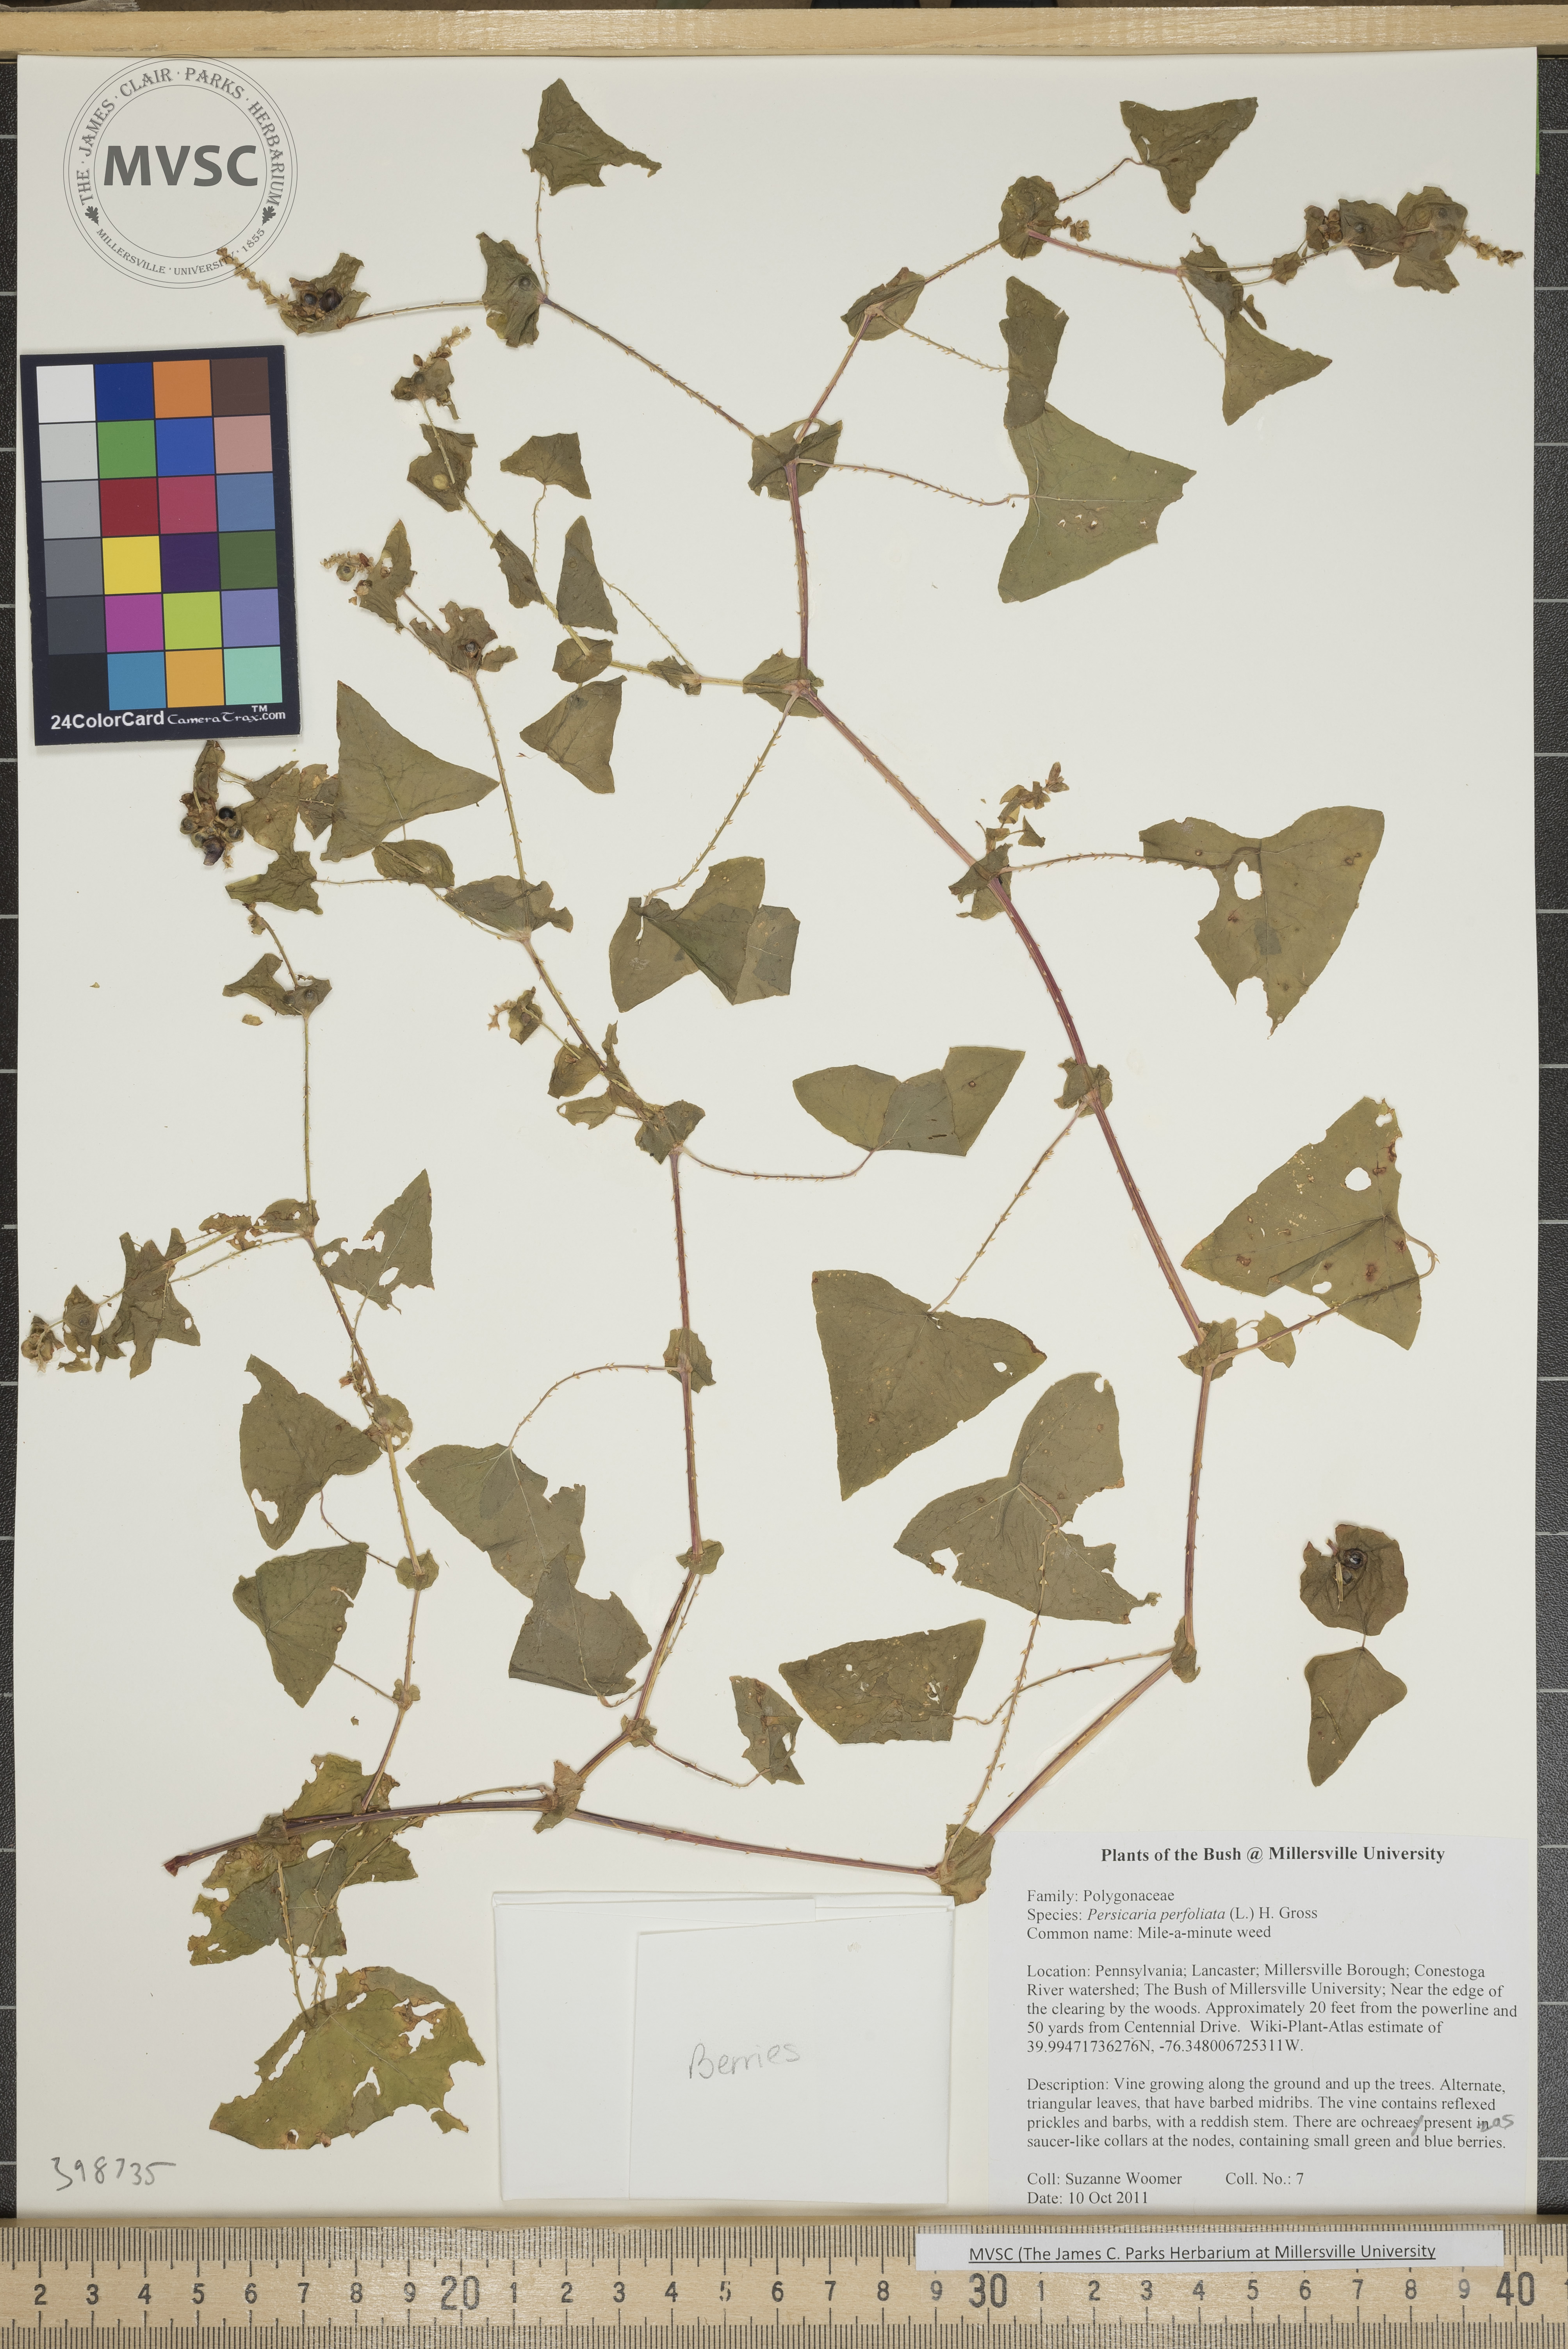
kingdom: Plantae
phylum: Tracheophyta
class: Magnoliopsida
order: Caryophyllales
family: Polygonaceae
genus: Persicaria
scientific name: Persicaria perfoliata
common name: Mile-a-minute weed
